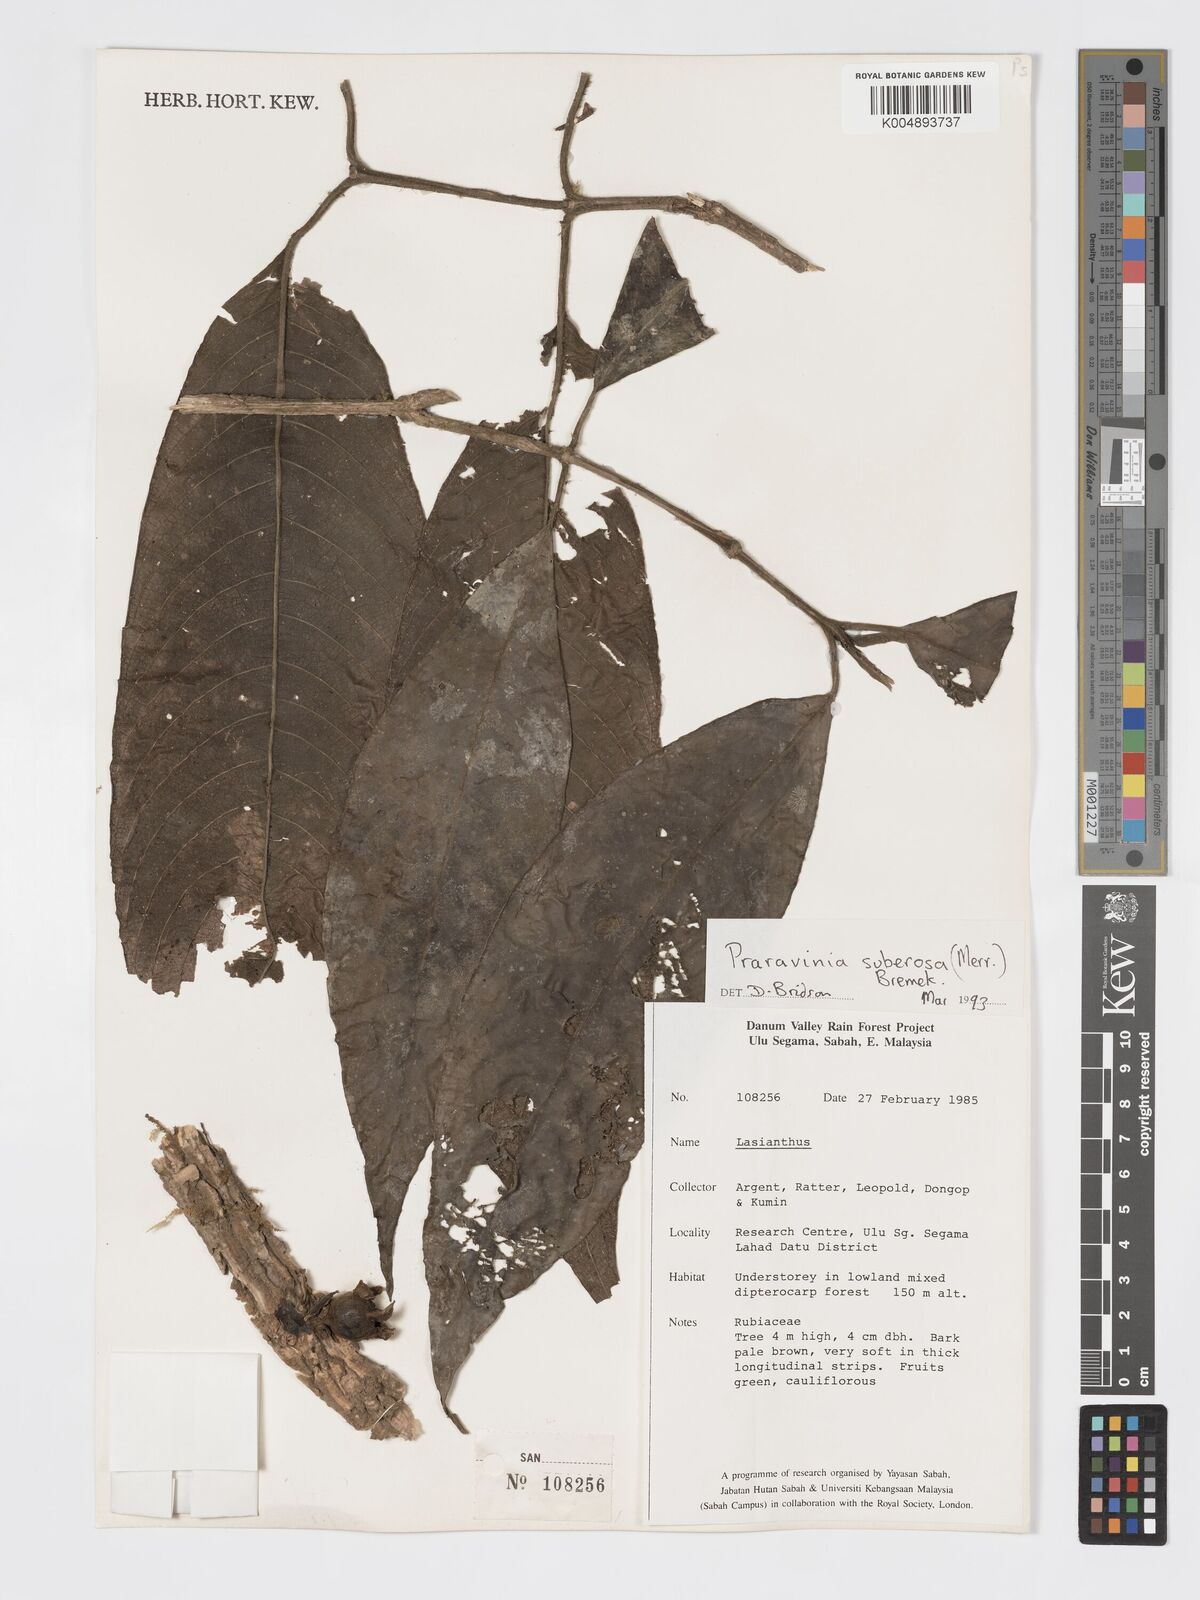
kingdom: Plantae
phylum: Tracheophyta
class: Magnoliopsida
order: Gentianales
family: Rubiaceae
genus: Praravinia
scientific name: Praravinia suberosa
